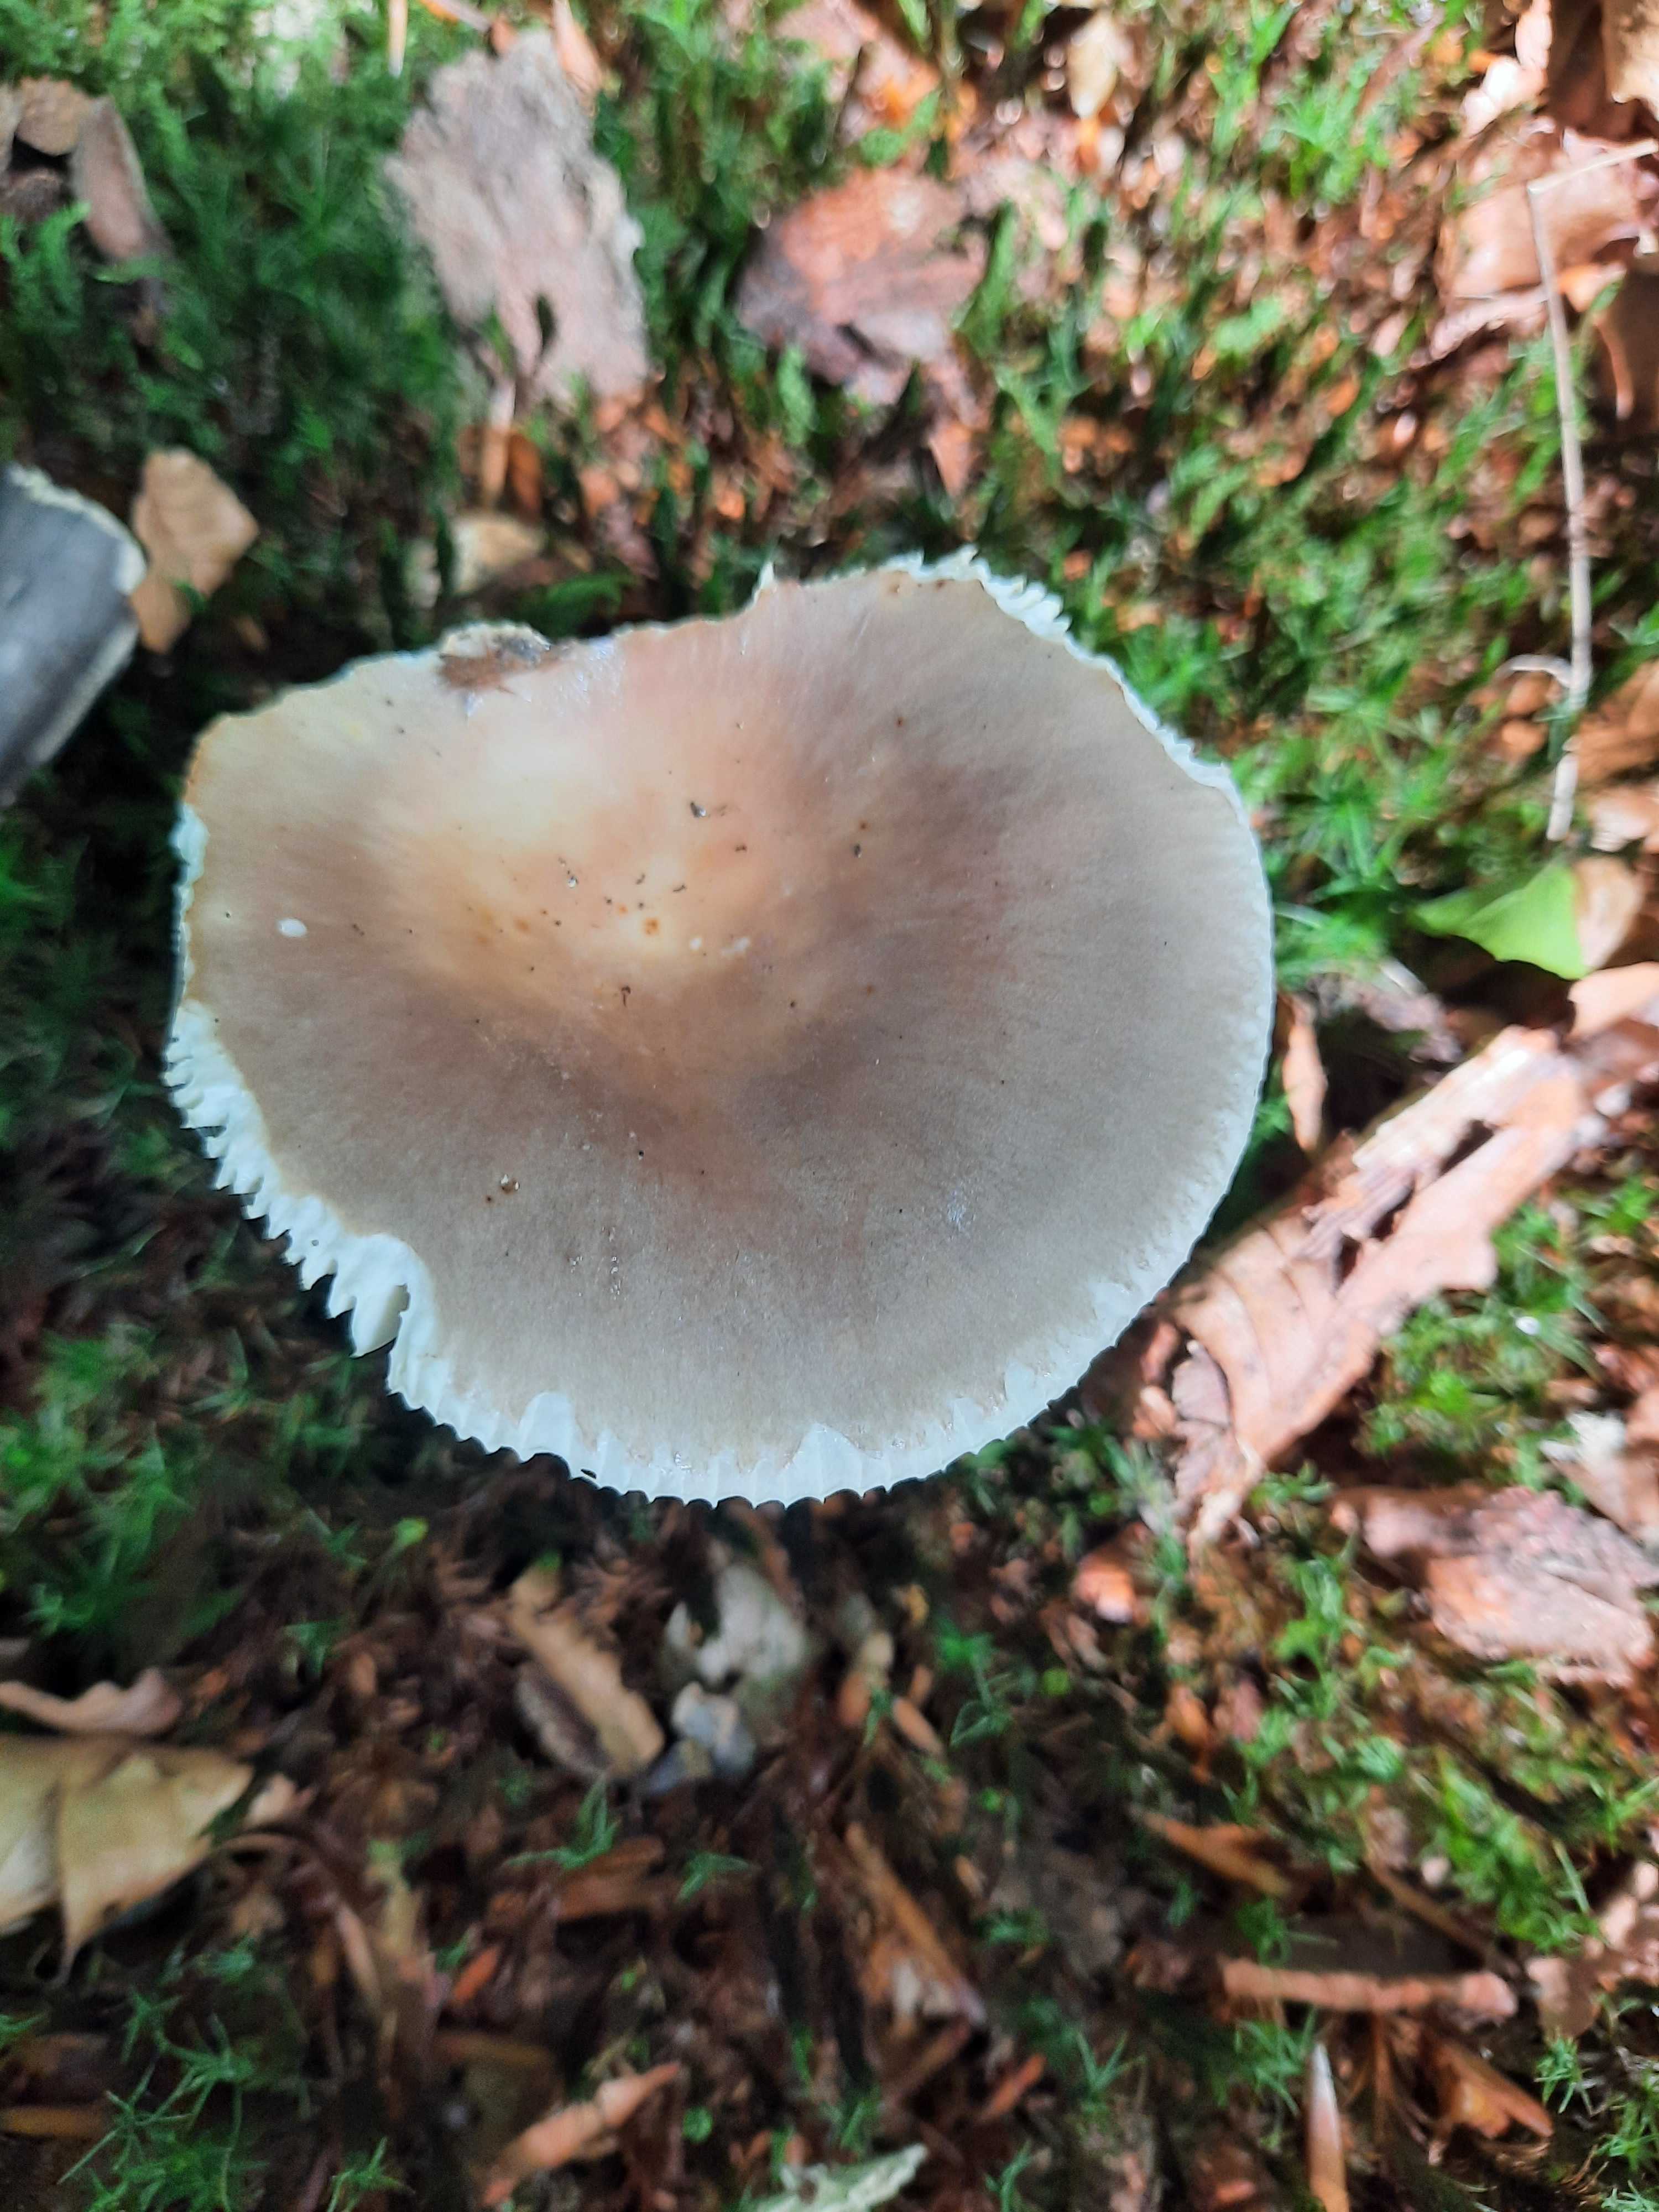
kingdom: Fungi
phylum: Basidiomycota
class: Agaricomycetes
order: Russulales
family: Russulaceae
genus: Russula
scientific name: Russula vesca
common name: spiselig skørhat
